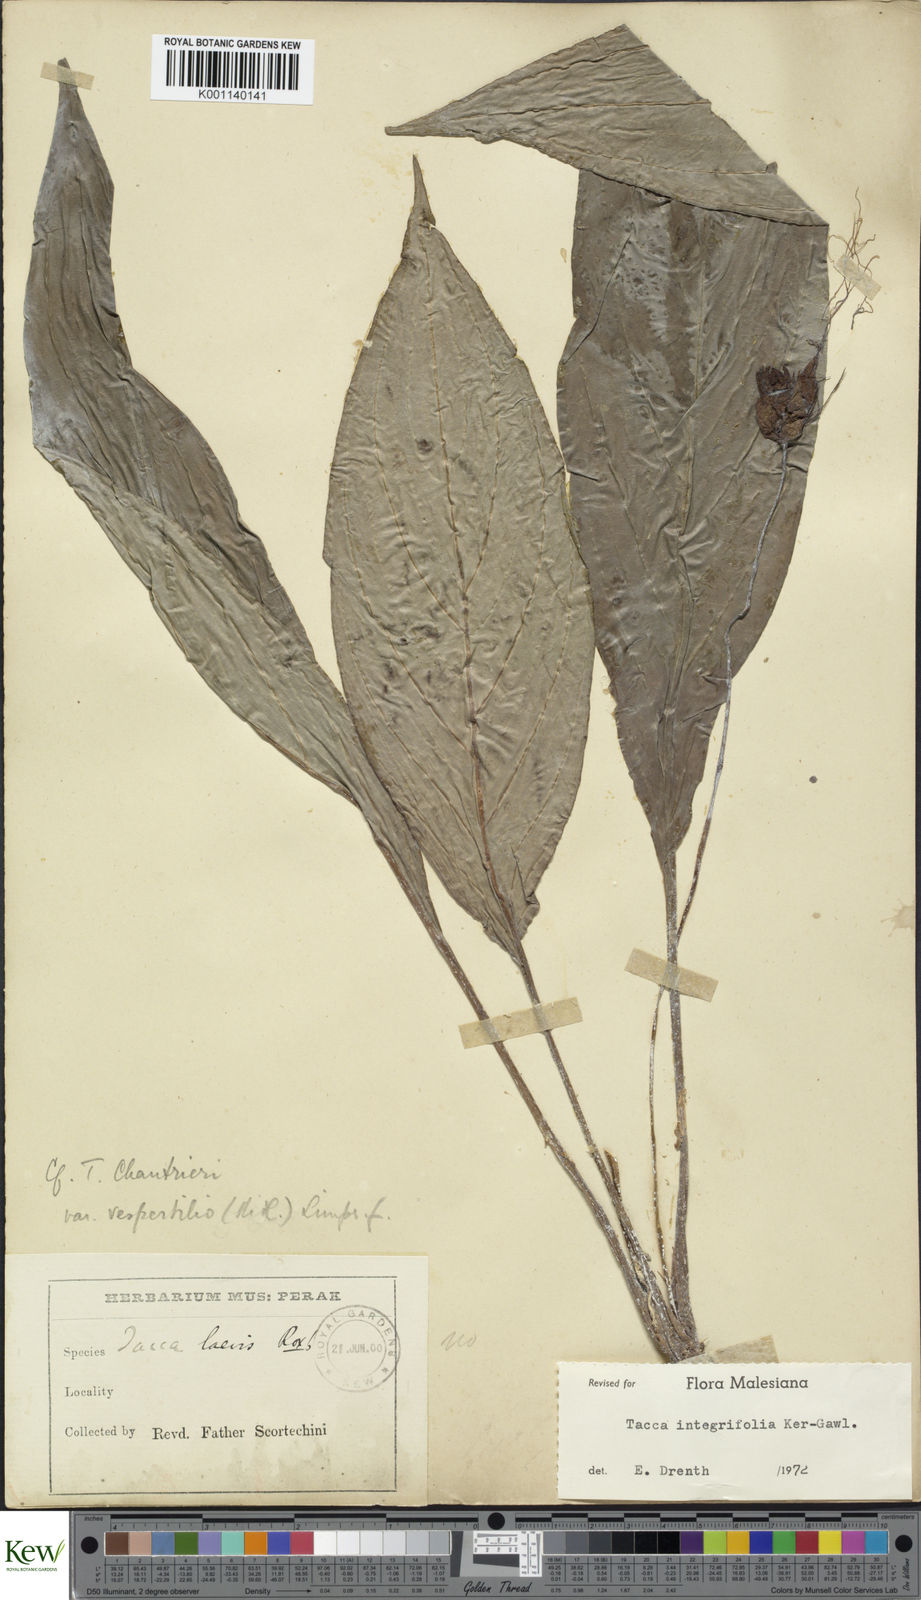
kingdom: Plantae
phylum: Tracheophyta
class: Liliopsida
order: Dioscoreales
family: Dioscoreaceae
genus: Tacca
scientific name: Tacca integrifolia
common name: Batplant
